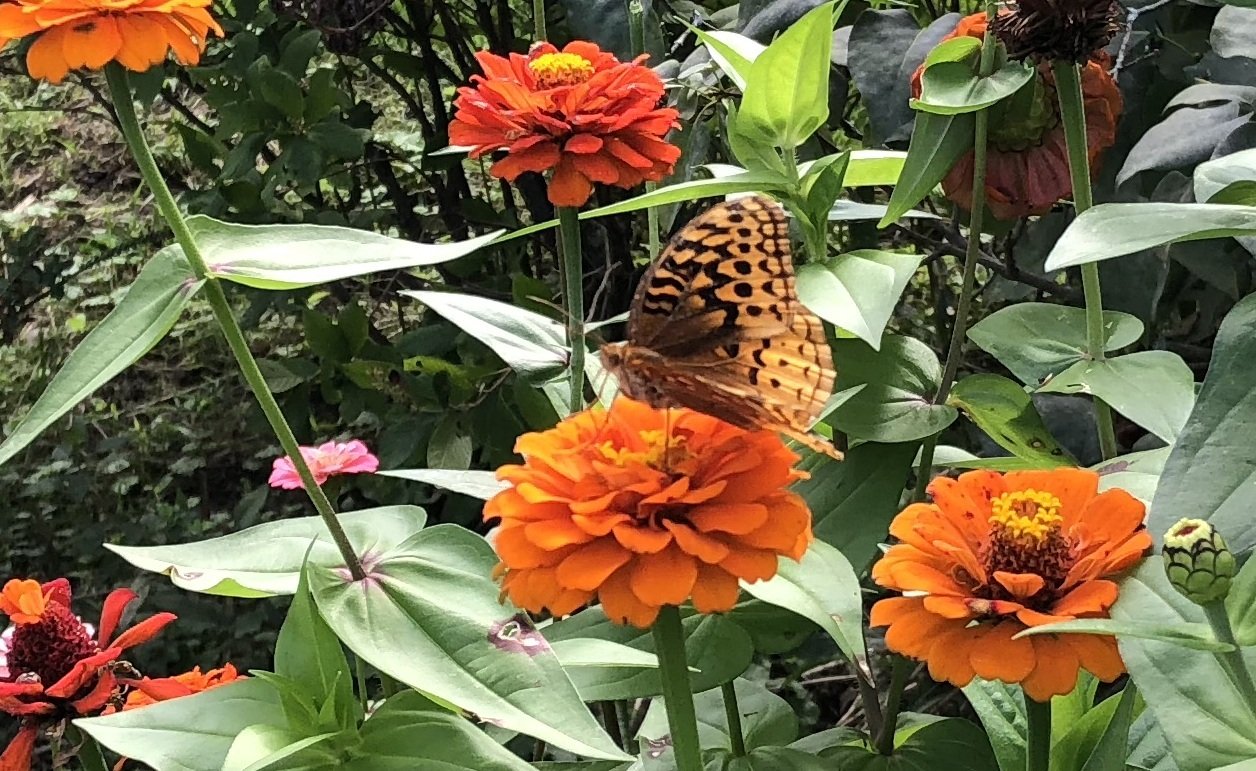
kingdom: Animalia
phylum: Arthropoda
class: Insecta
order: Lepidoptera
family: Nymphalidae
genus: Speyeria
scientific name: Speyeria cybele
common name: Great Spangled Fritillary
